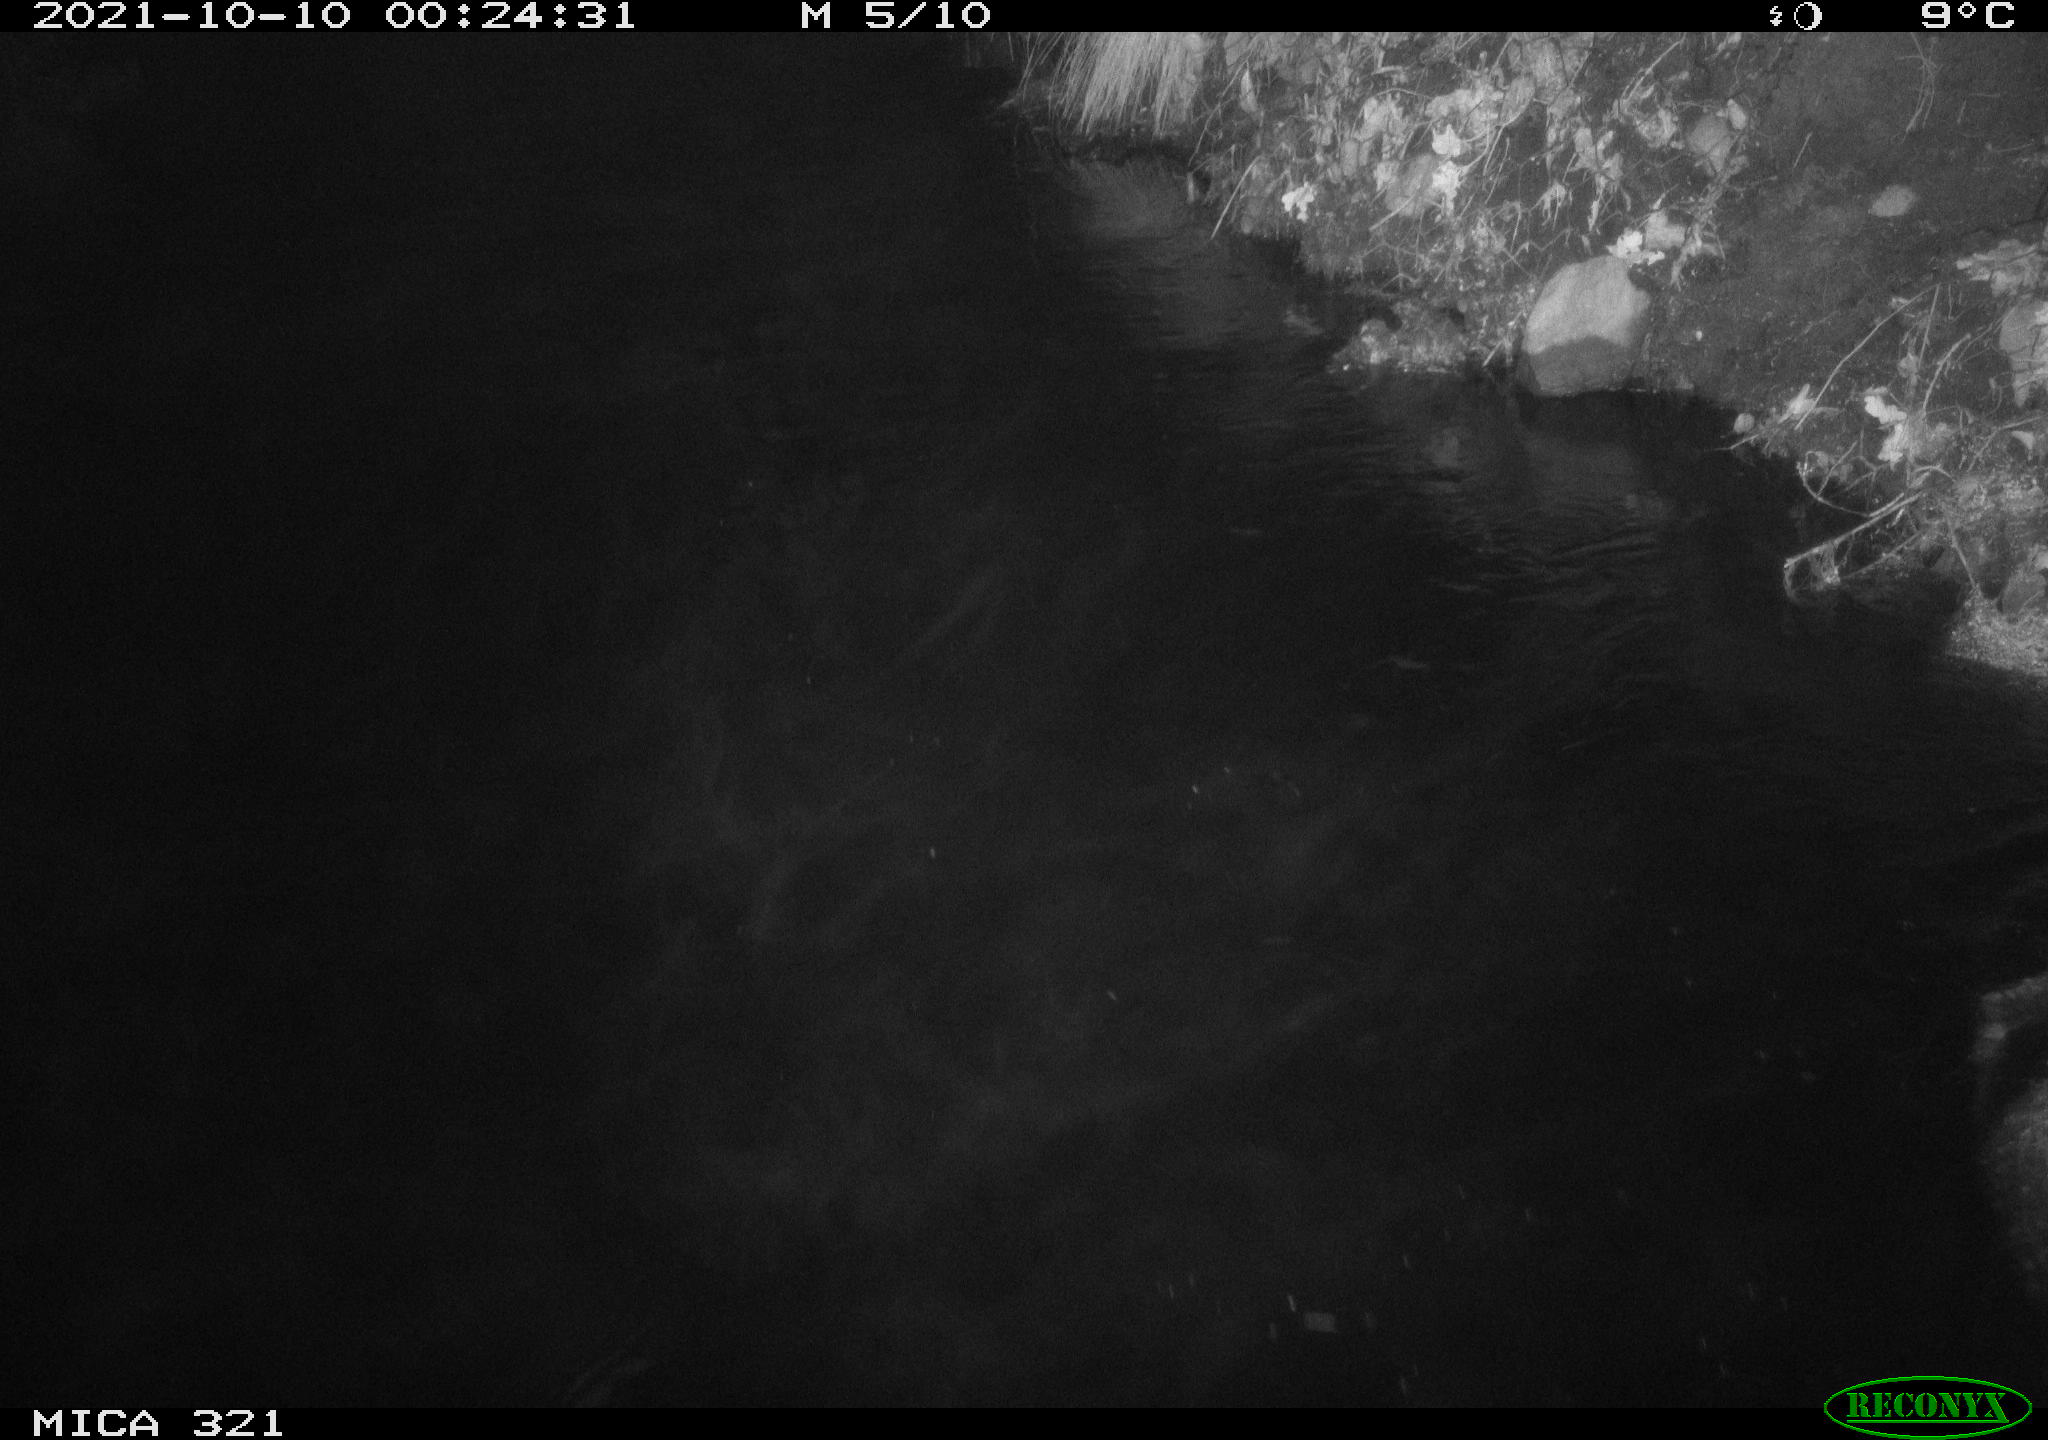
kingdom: Animalia
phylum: Chordata
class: Mammalia
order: Rodentia
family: Muridae
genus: Rattus
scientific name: Rattus norvegicus
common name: Brown rat
